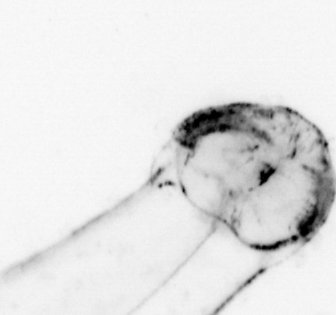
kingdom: Animalia
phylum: Chaetognatha
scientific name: Chaetognatha
